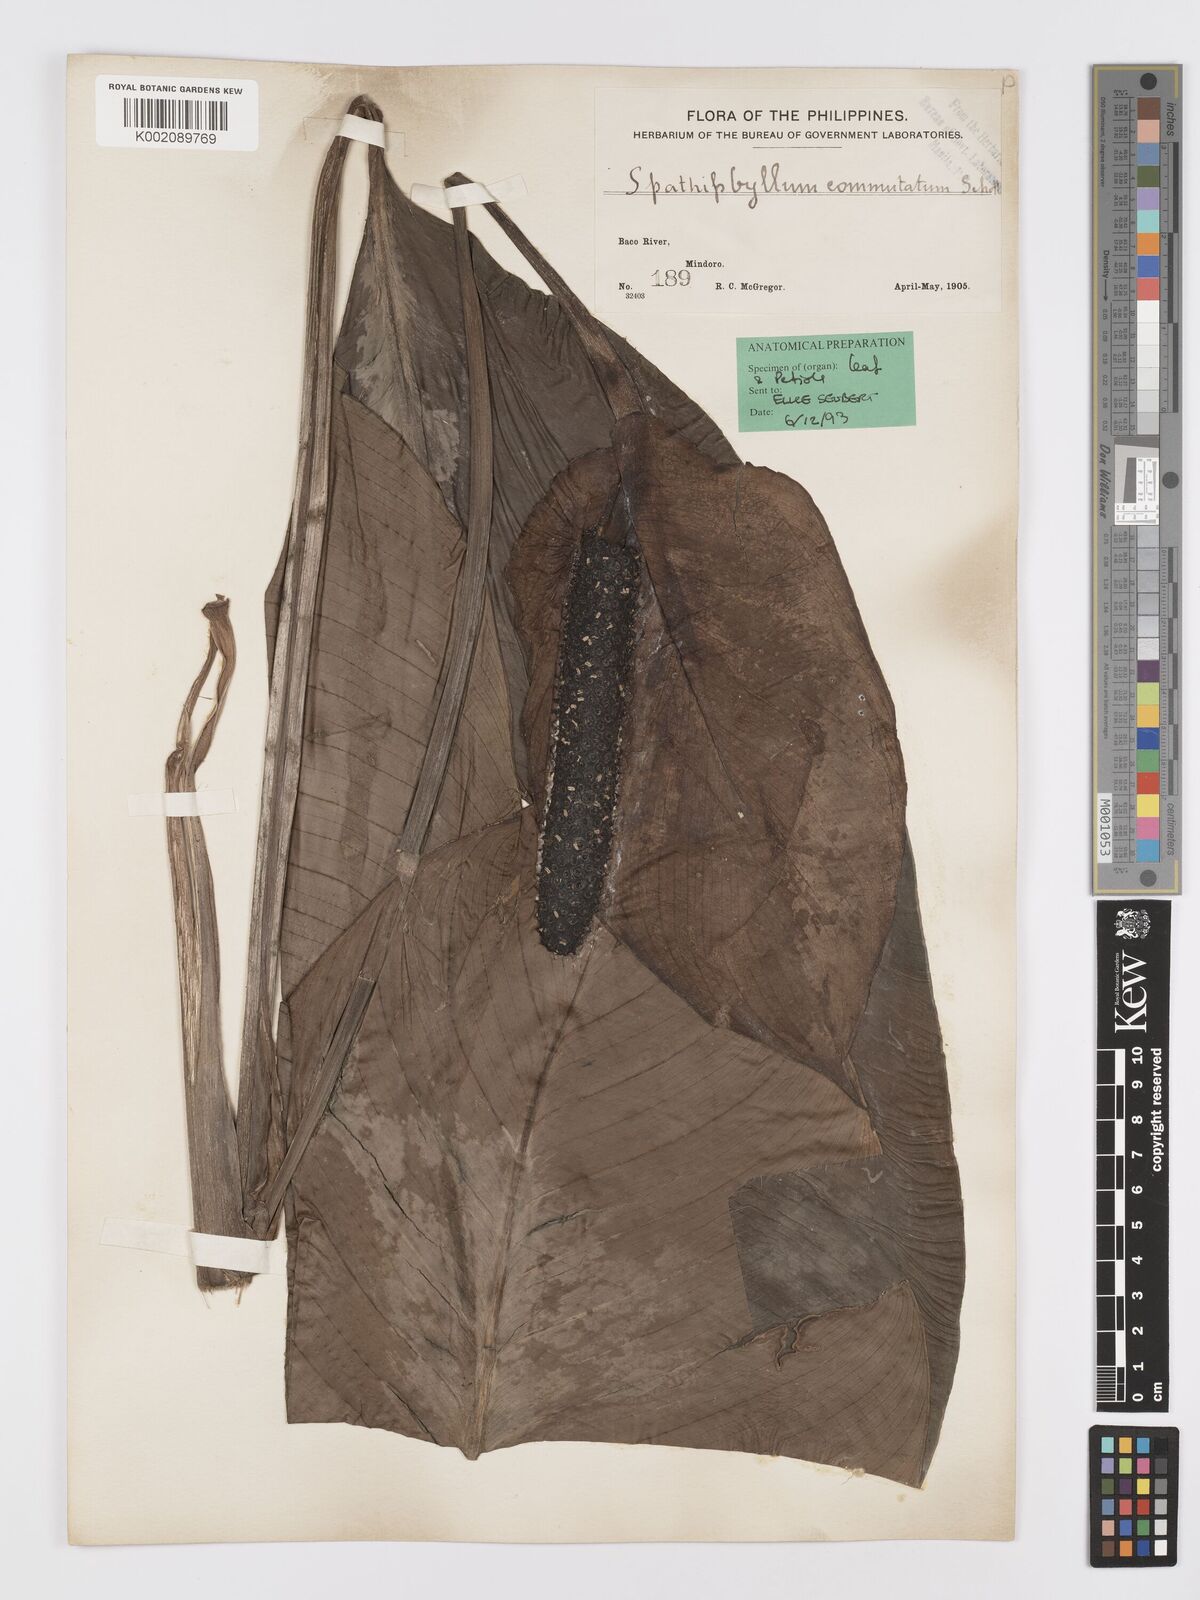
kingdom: Plantae
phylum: Tracheophyta
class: Liliopsida
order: Alismatales
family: Araceae
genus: Spathiphyllum
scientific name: Spathiphyllum commutatum
